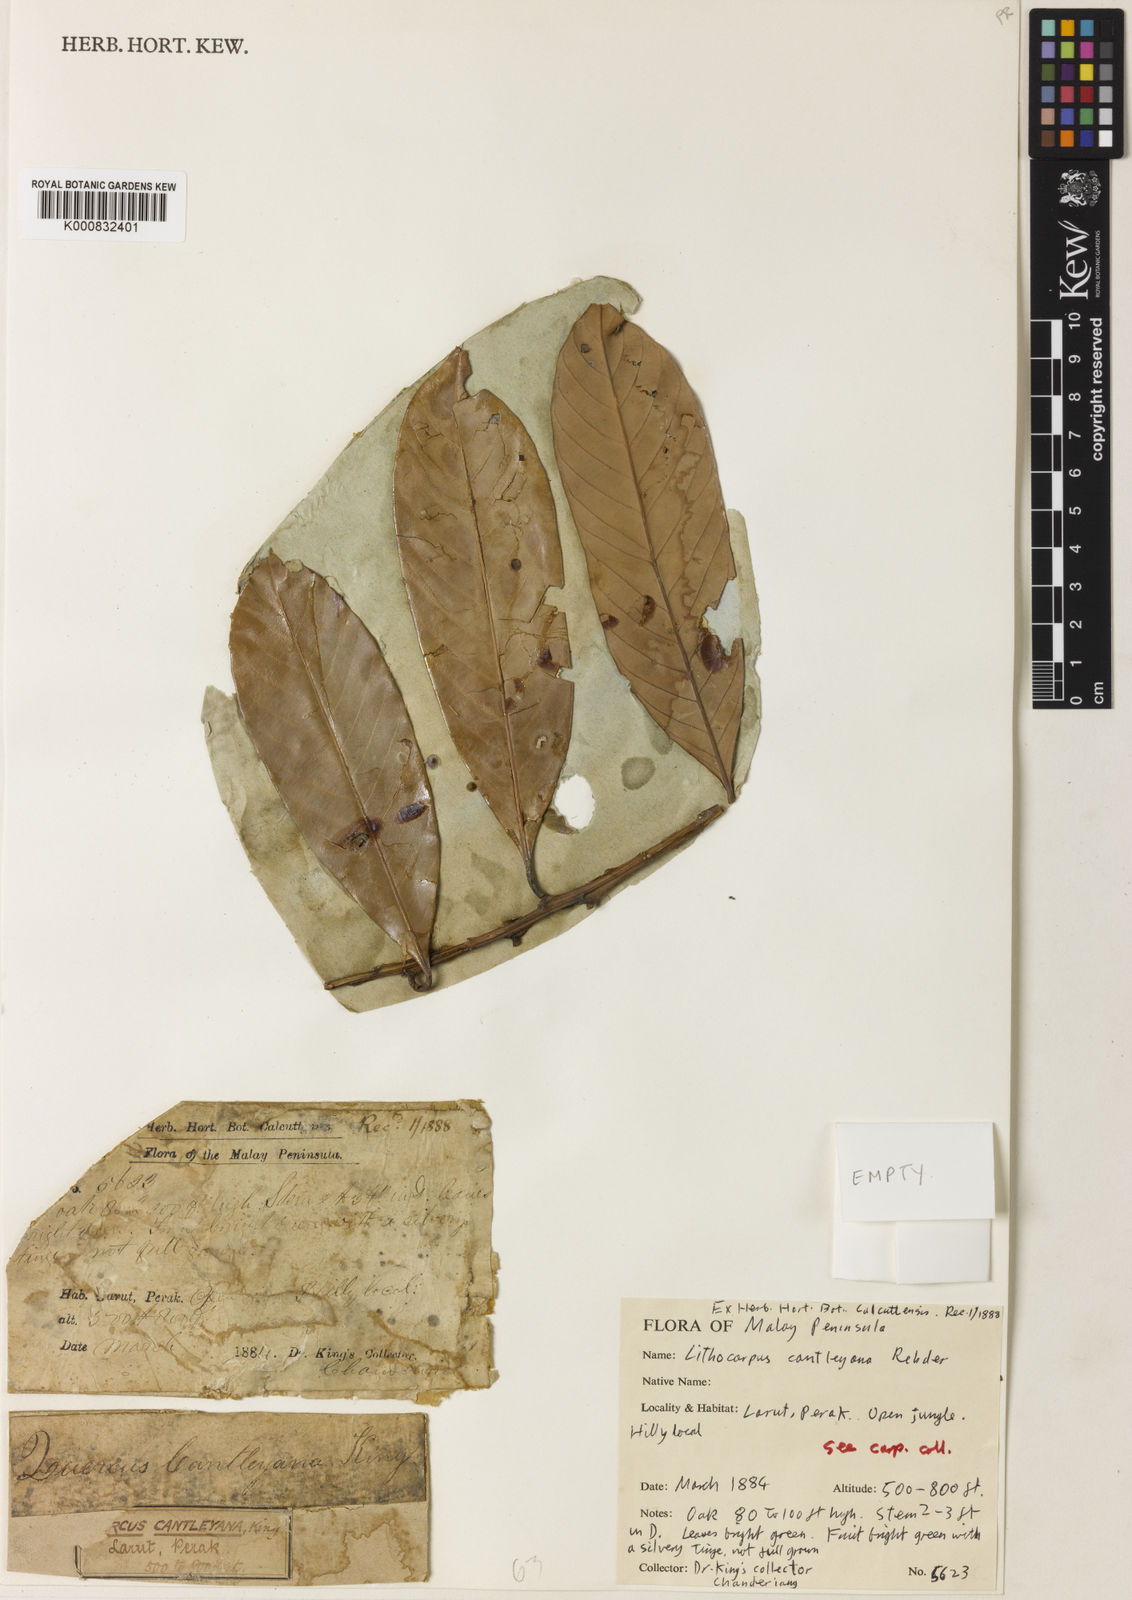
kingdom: Plantae
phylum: Tracheophyta
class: Magnoliopsida
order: Fagales
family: Fagaceae
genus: Lithocarpus
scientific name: Lithocarpus cantleyanus
